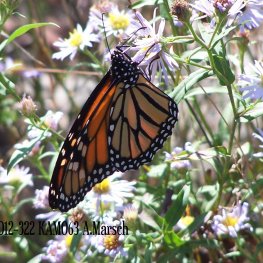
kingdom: Animalia
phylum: Arthropoda
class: Insecta
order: Lepidoptera
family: Nymphalidae
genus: Danaus
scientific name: Danaus plexippus
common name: Monarch
